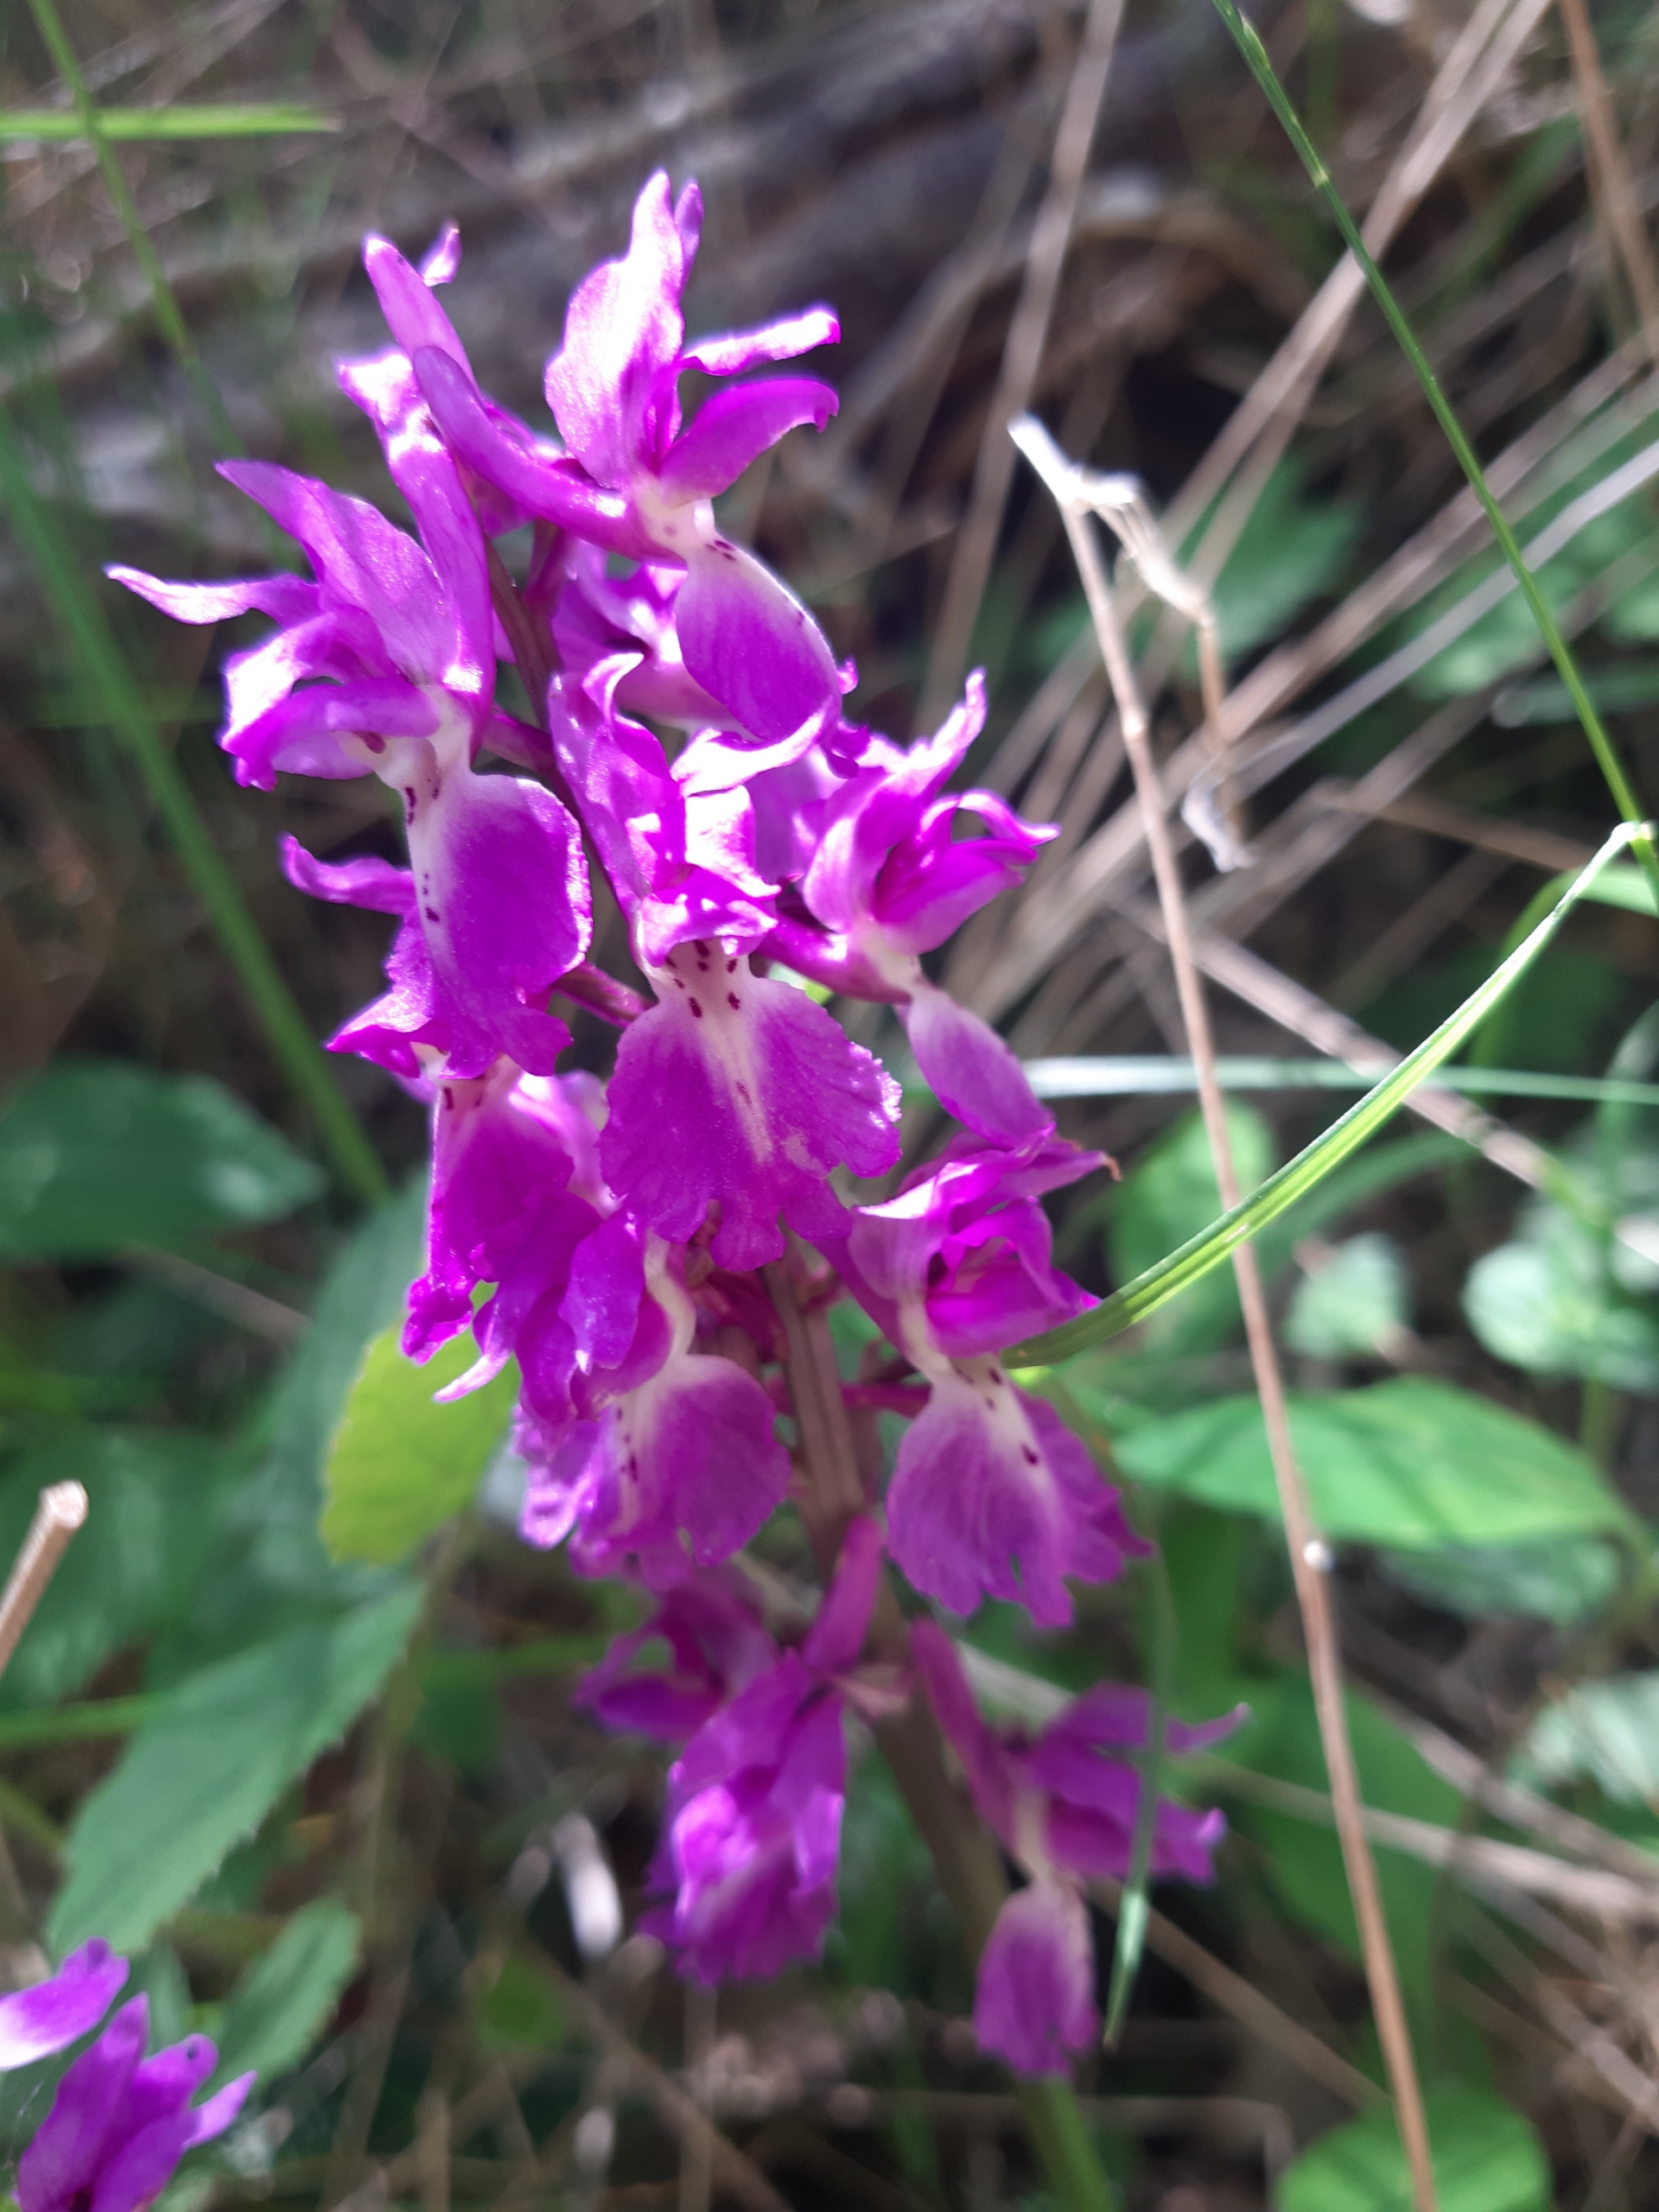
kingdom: Plantae
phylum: Tracheophyta
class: Liliopsida
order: Asparagales
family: Orchidaceae
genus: Orchis
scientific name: Orchis mascula
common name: Tyndakset gøgeurt
